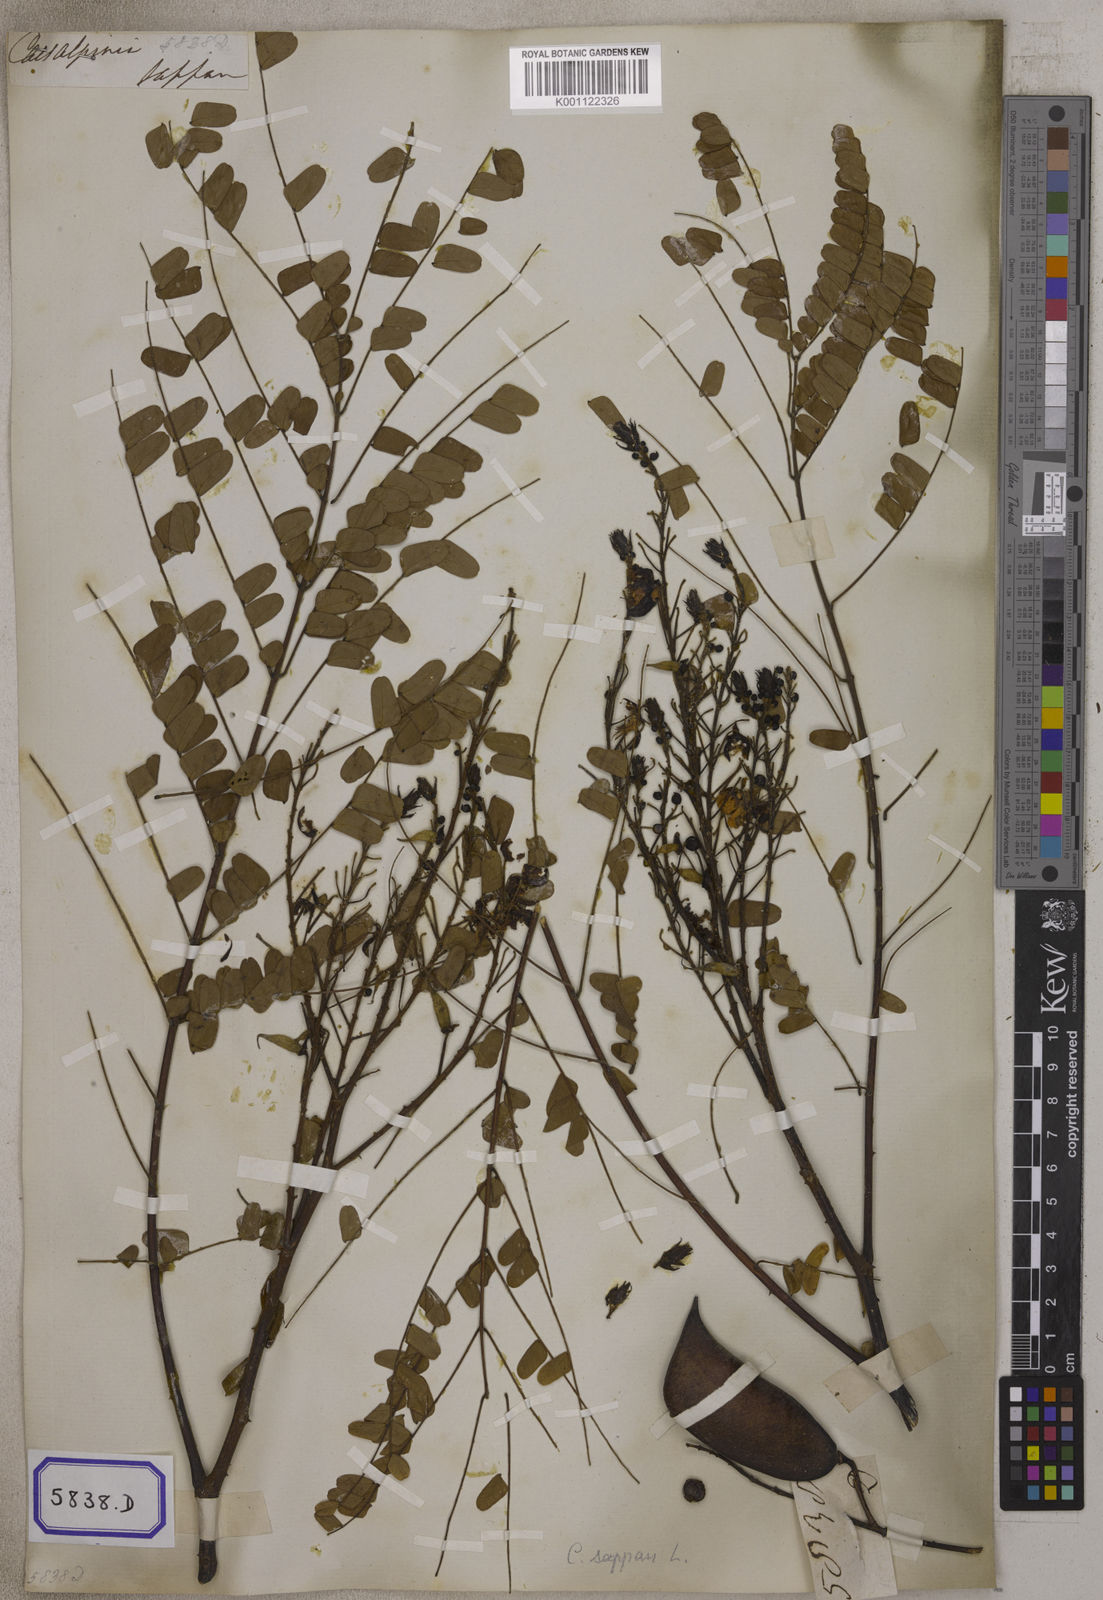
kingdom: Plantae
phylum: Tracheophyta
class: Magnoliopsida
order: Fabales
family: Fabaceae
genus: Biancaea
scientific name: Biancaea sappan
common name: Sappan
